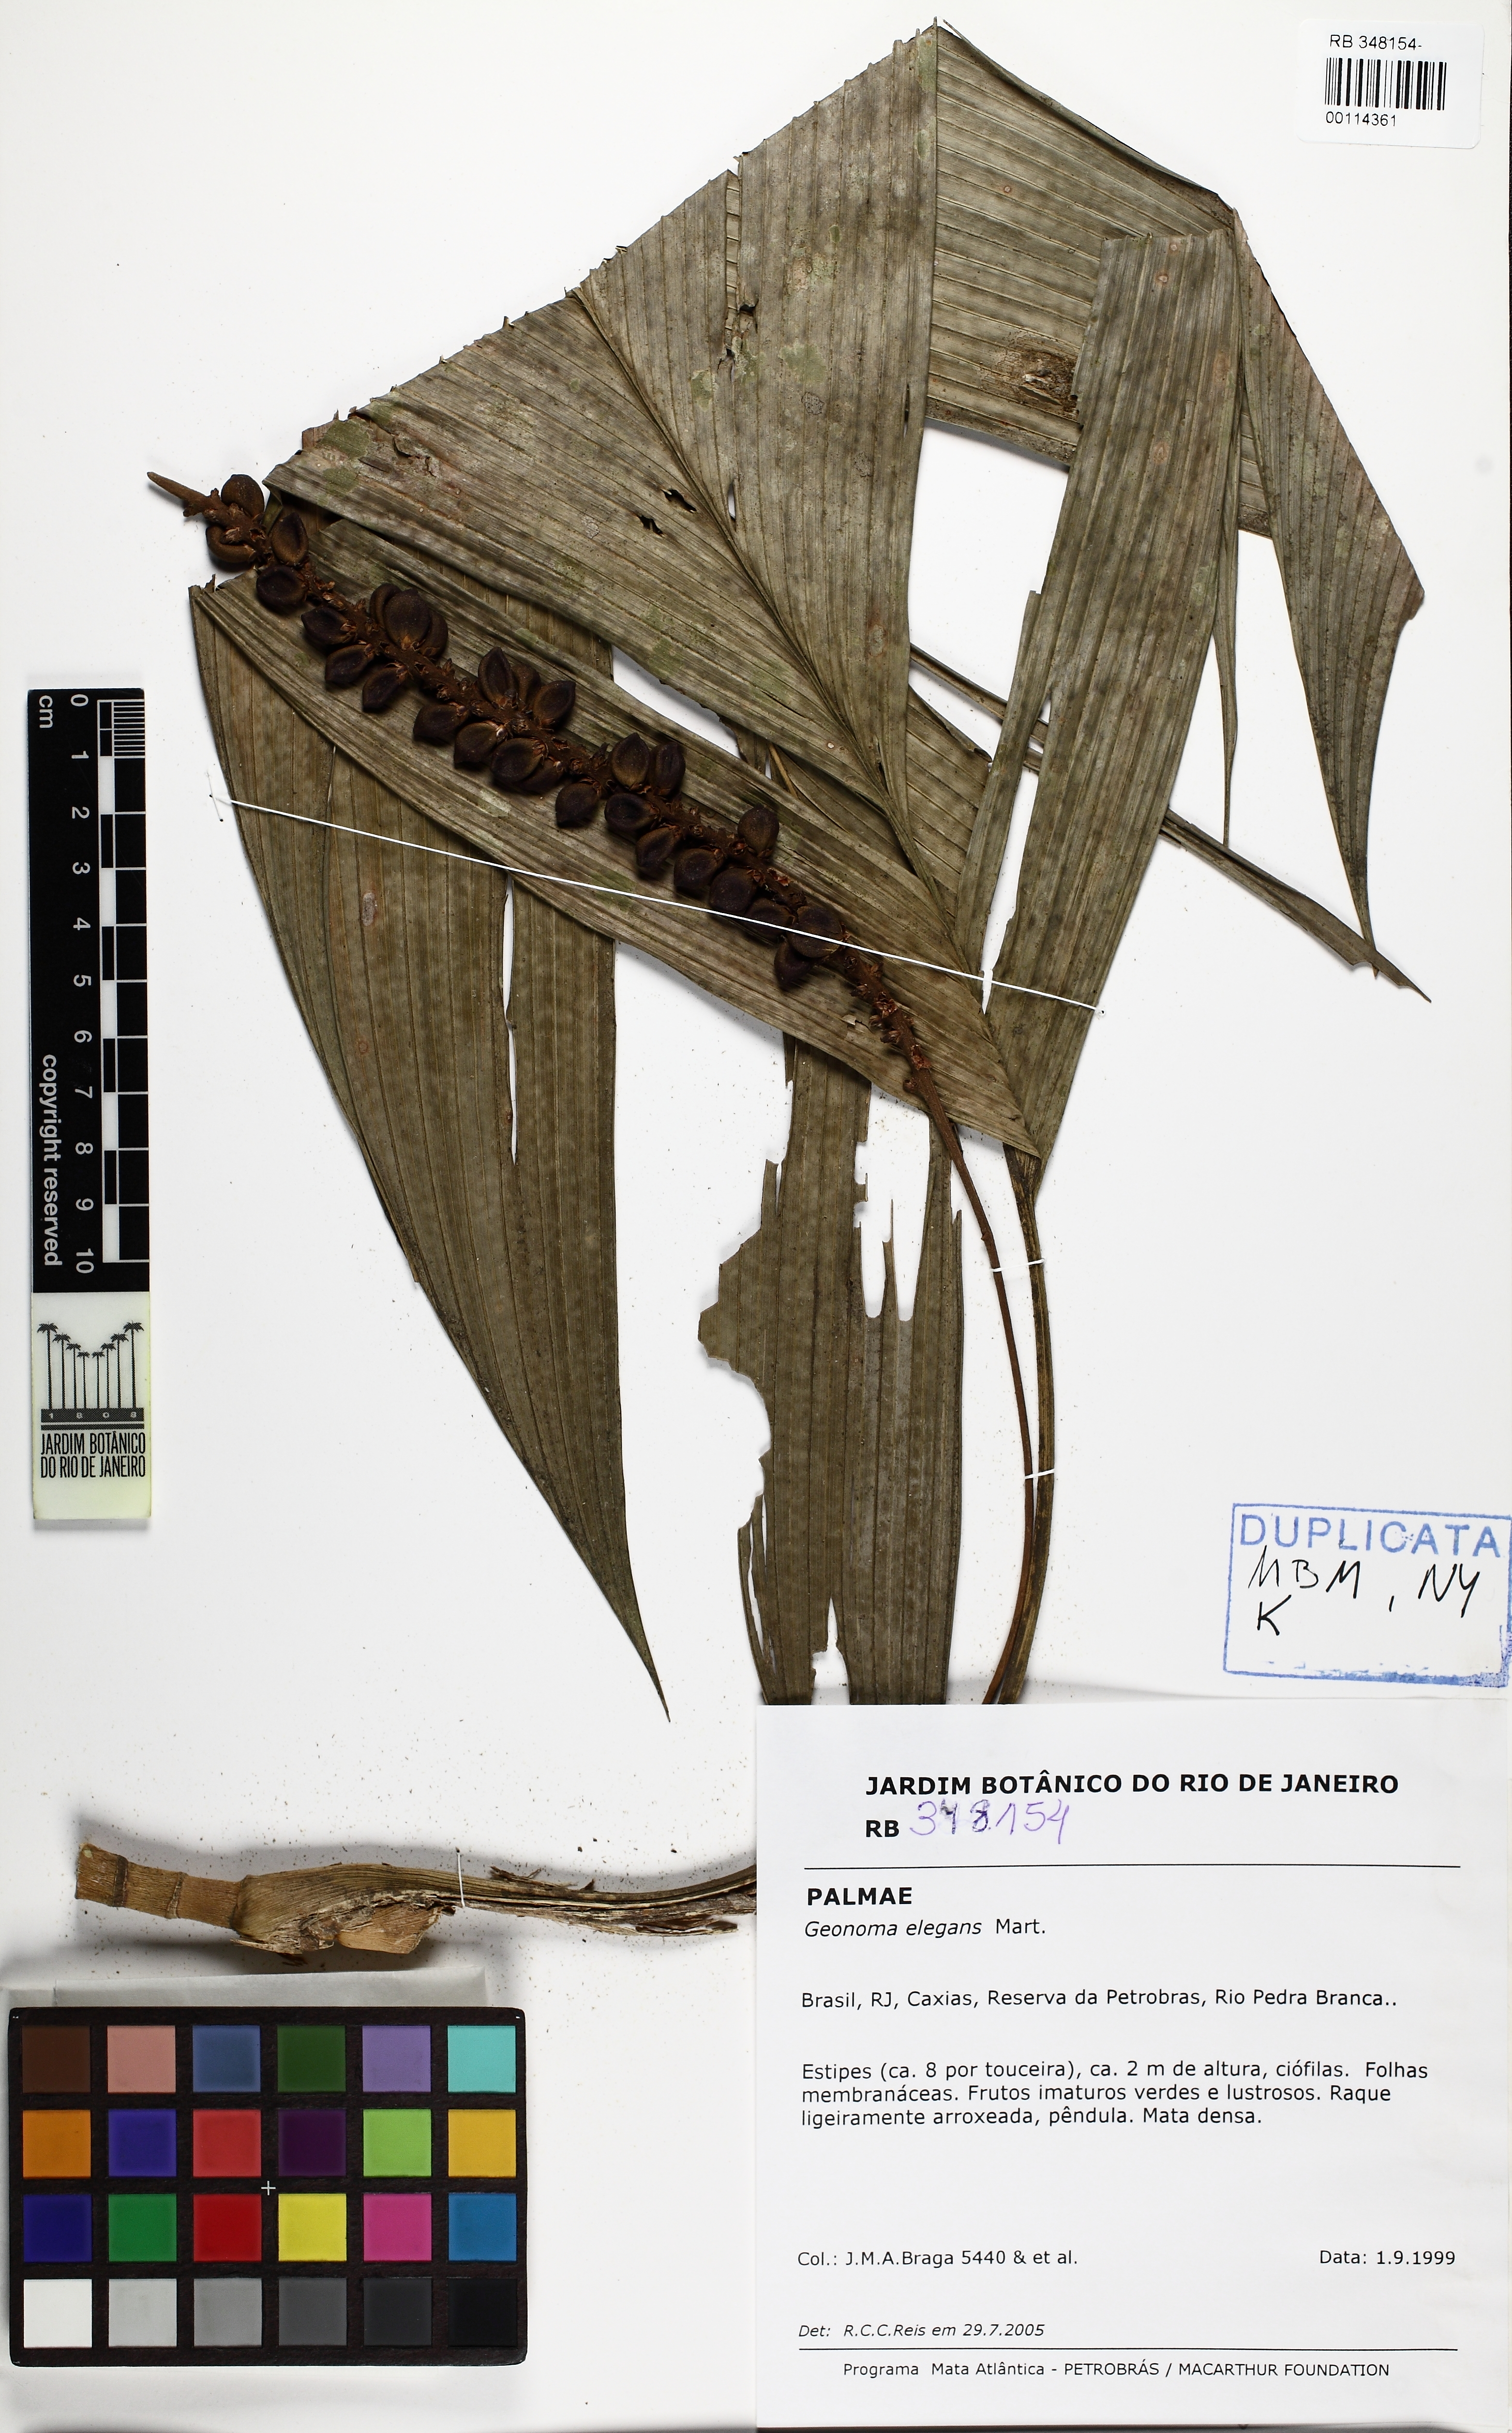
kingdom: Plantae
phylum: Tracheophyta
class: Liliopsida
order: Arecales
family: Arecaceae
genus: Geonoma
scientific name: Geonoma elegans
